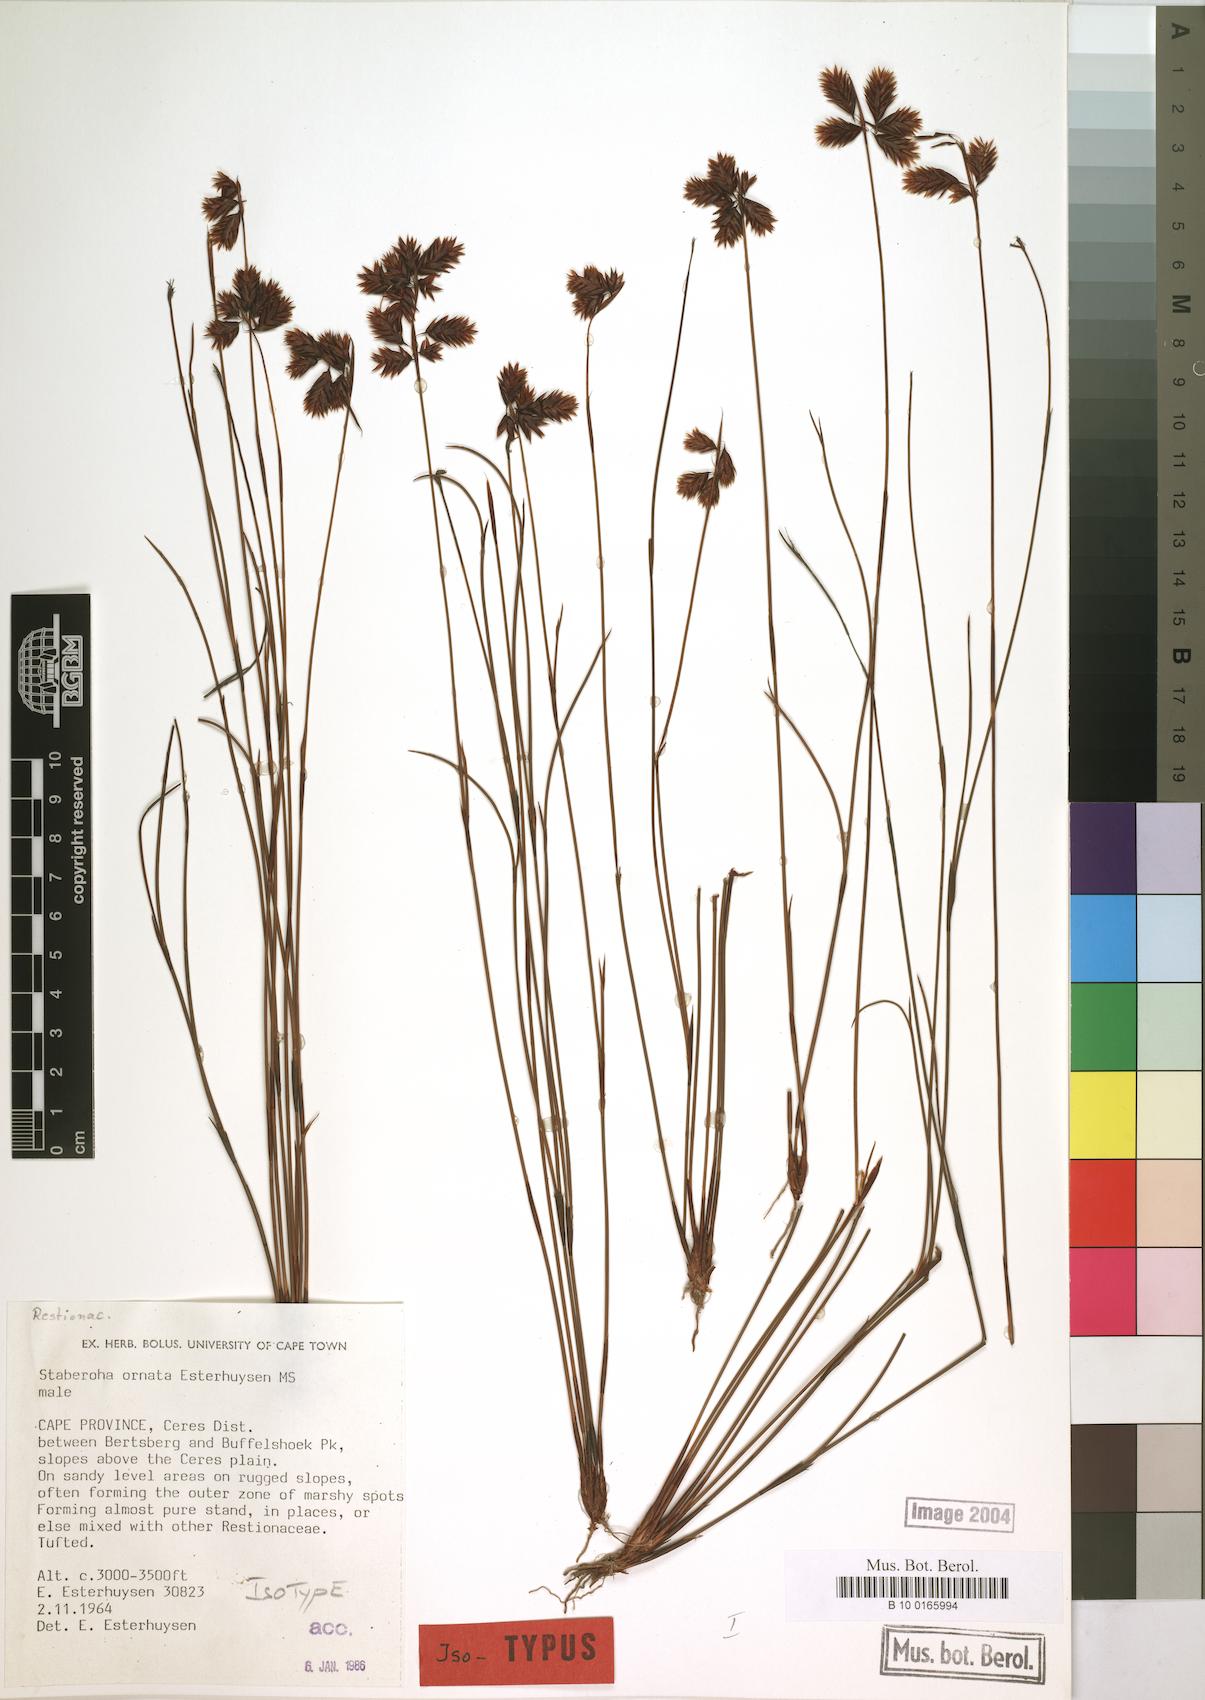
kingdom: Plantae
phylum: Tracheophyta
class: Liliopsida
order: Poales
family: Restionaceae
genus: Staberoha
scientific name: Staberoha ornata
